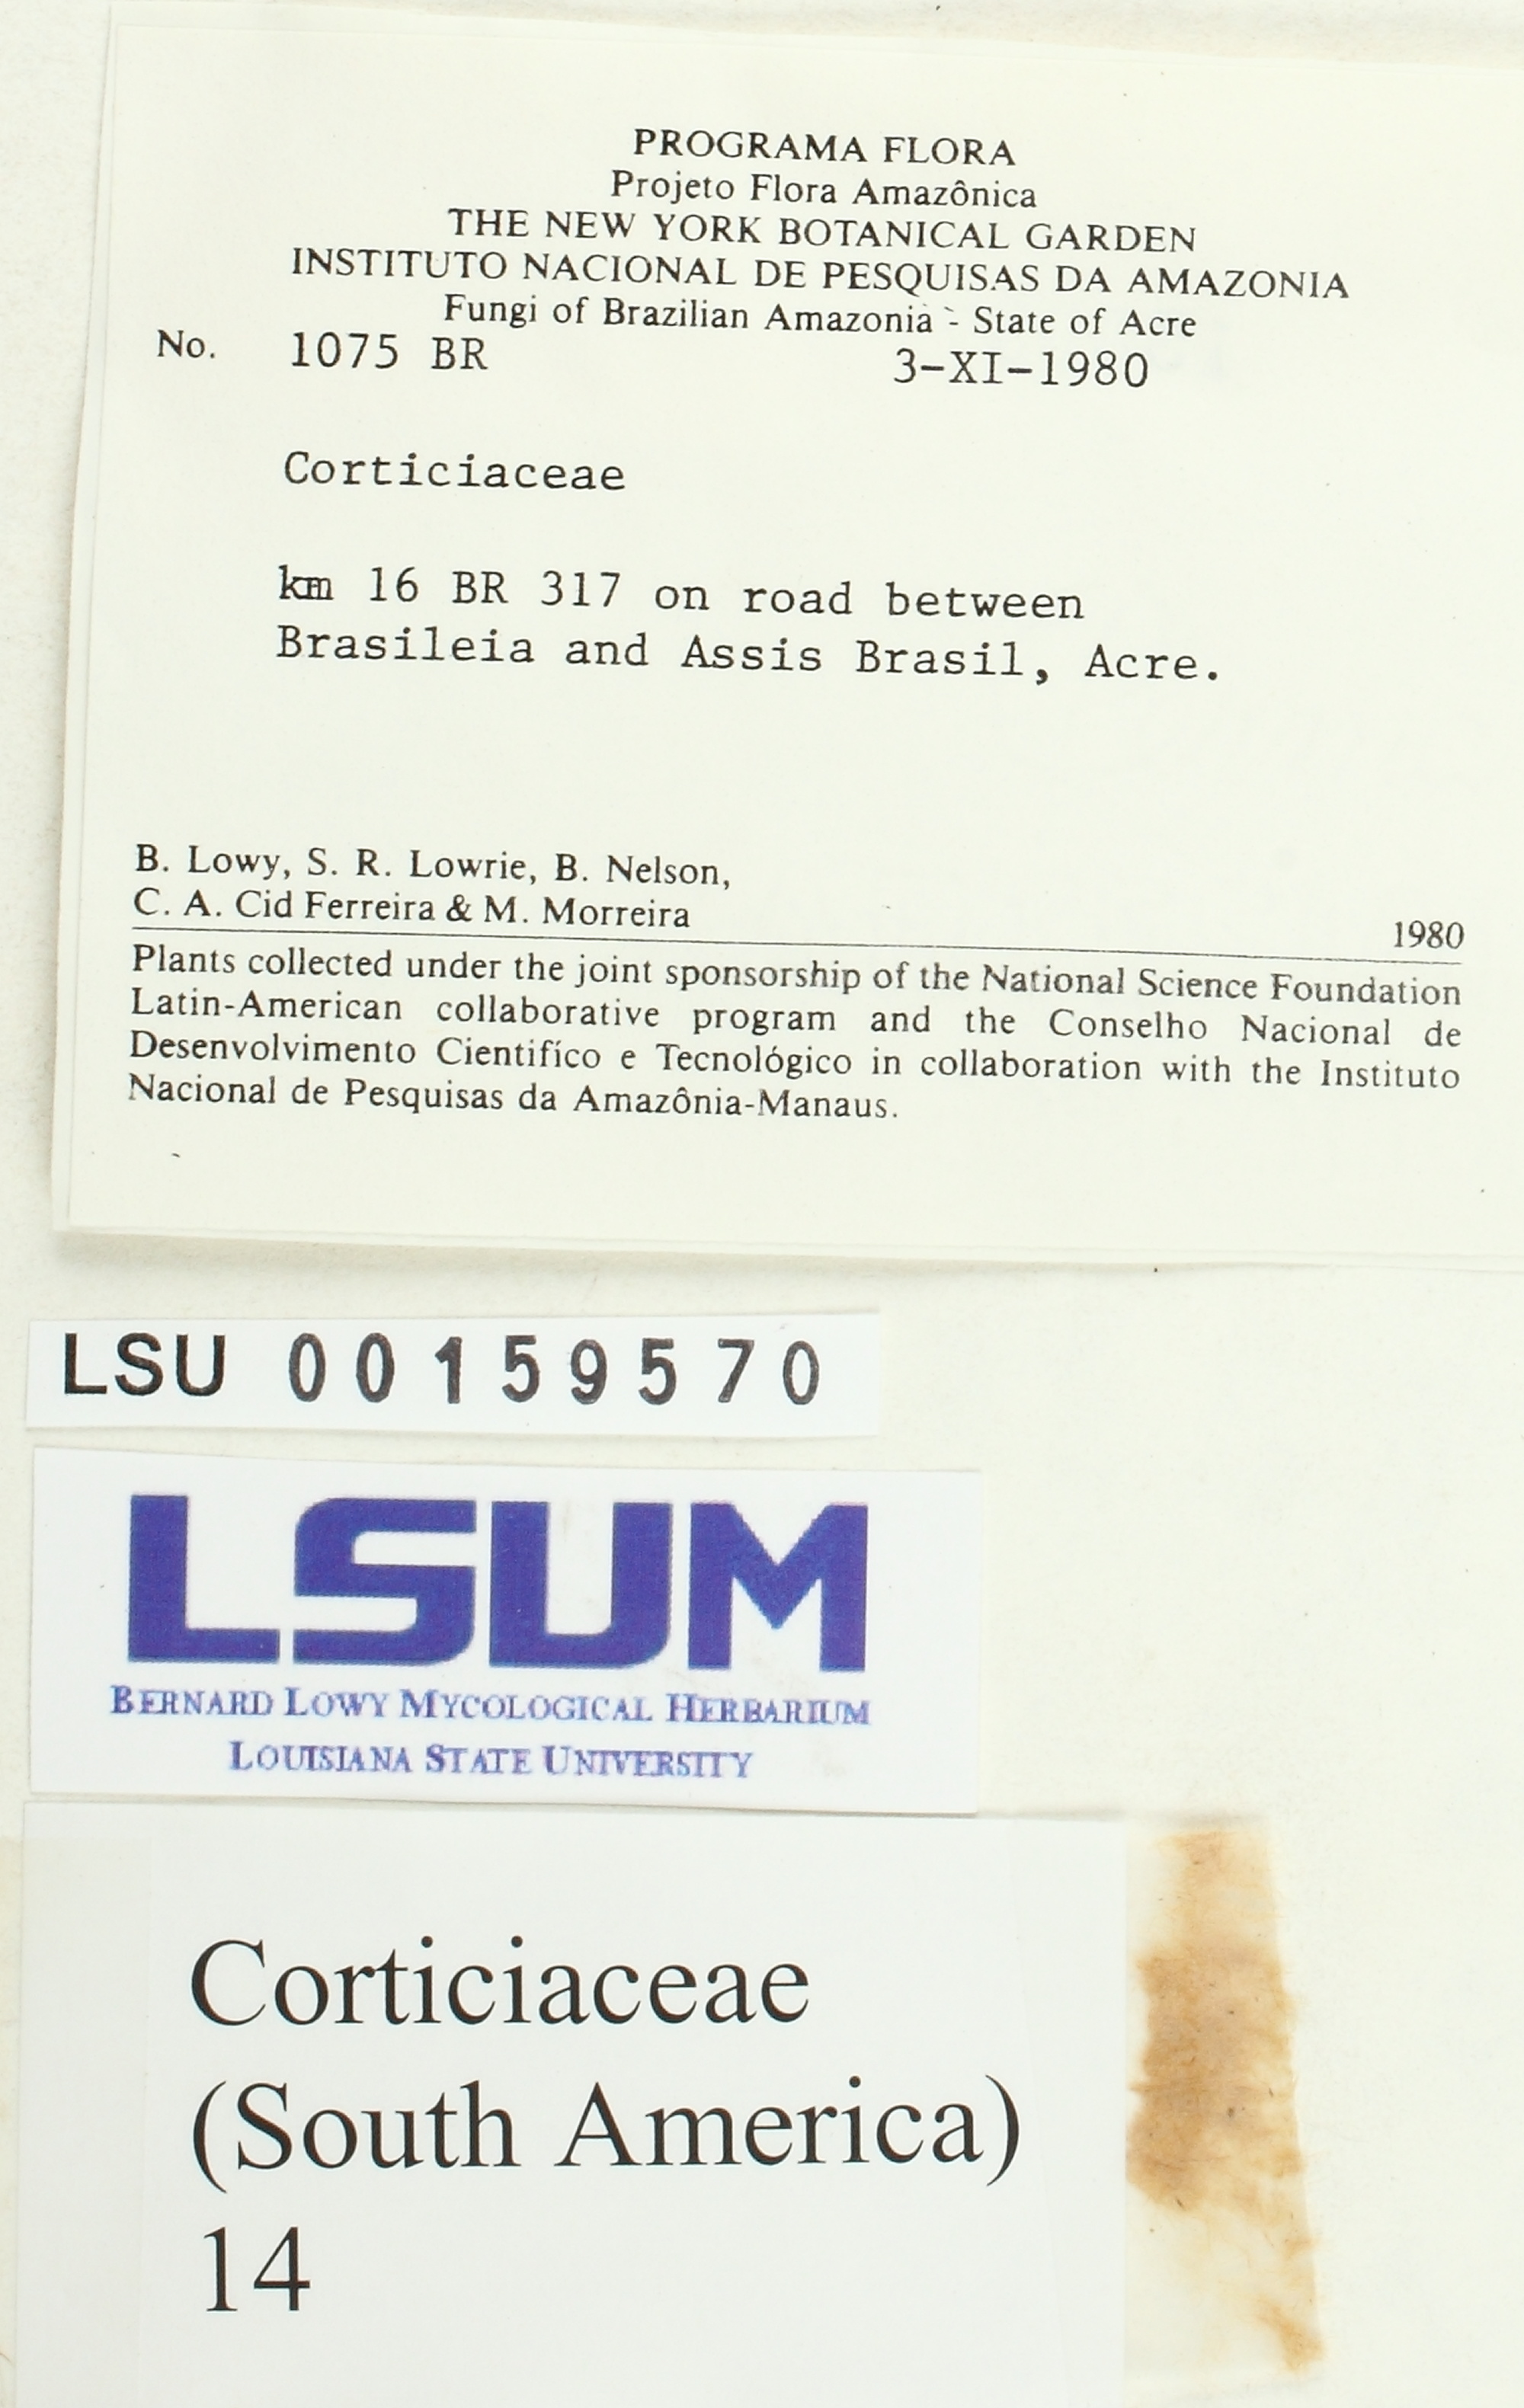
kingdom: Fungi
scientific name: Fungi
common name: Fungi
